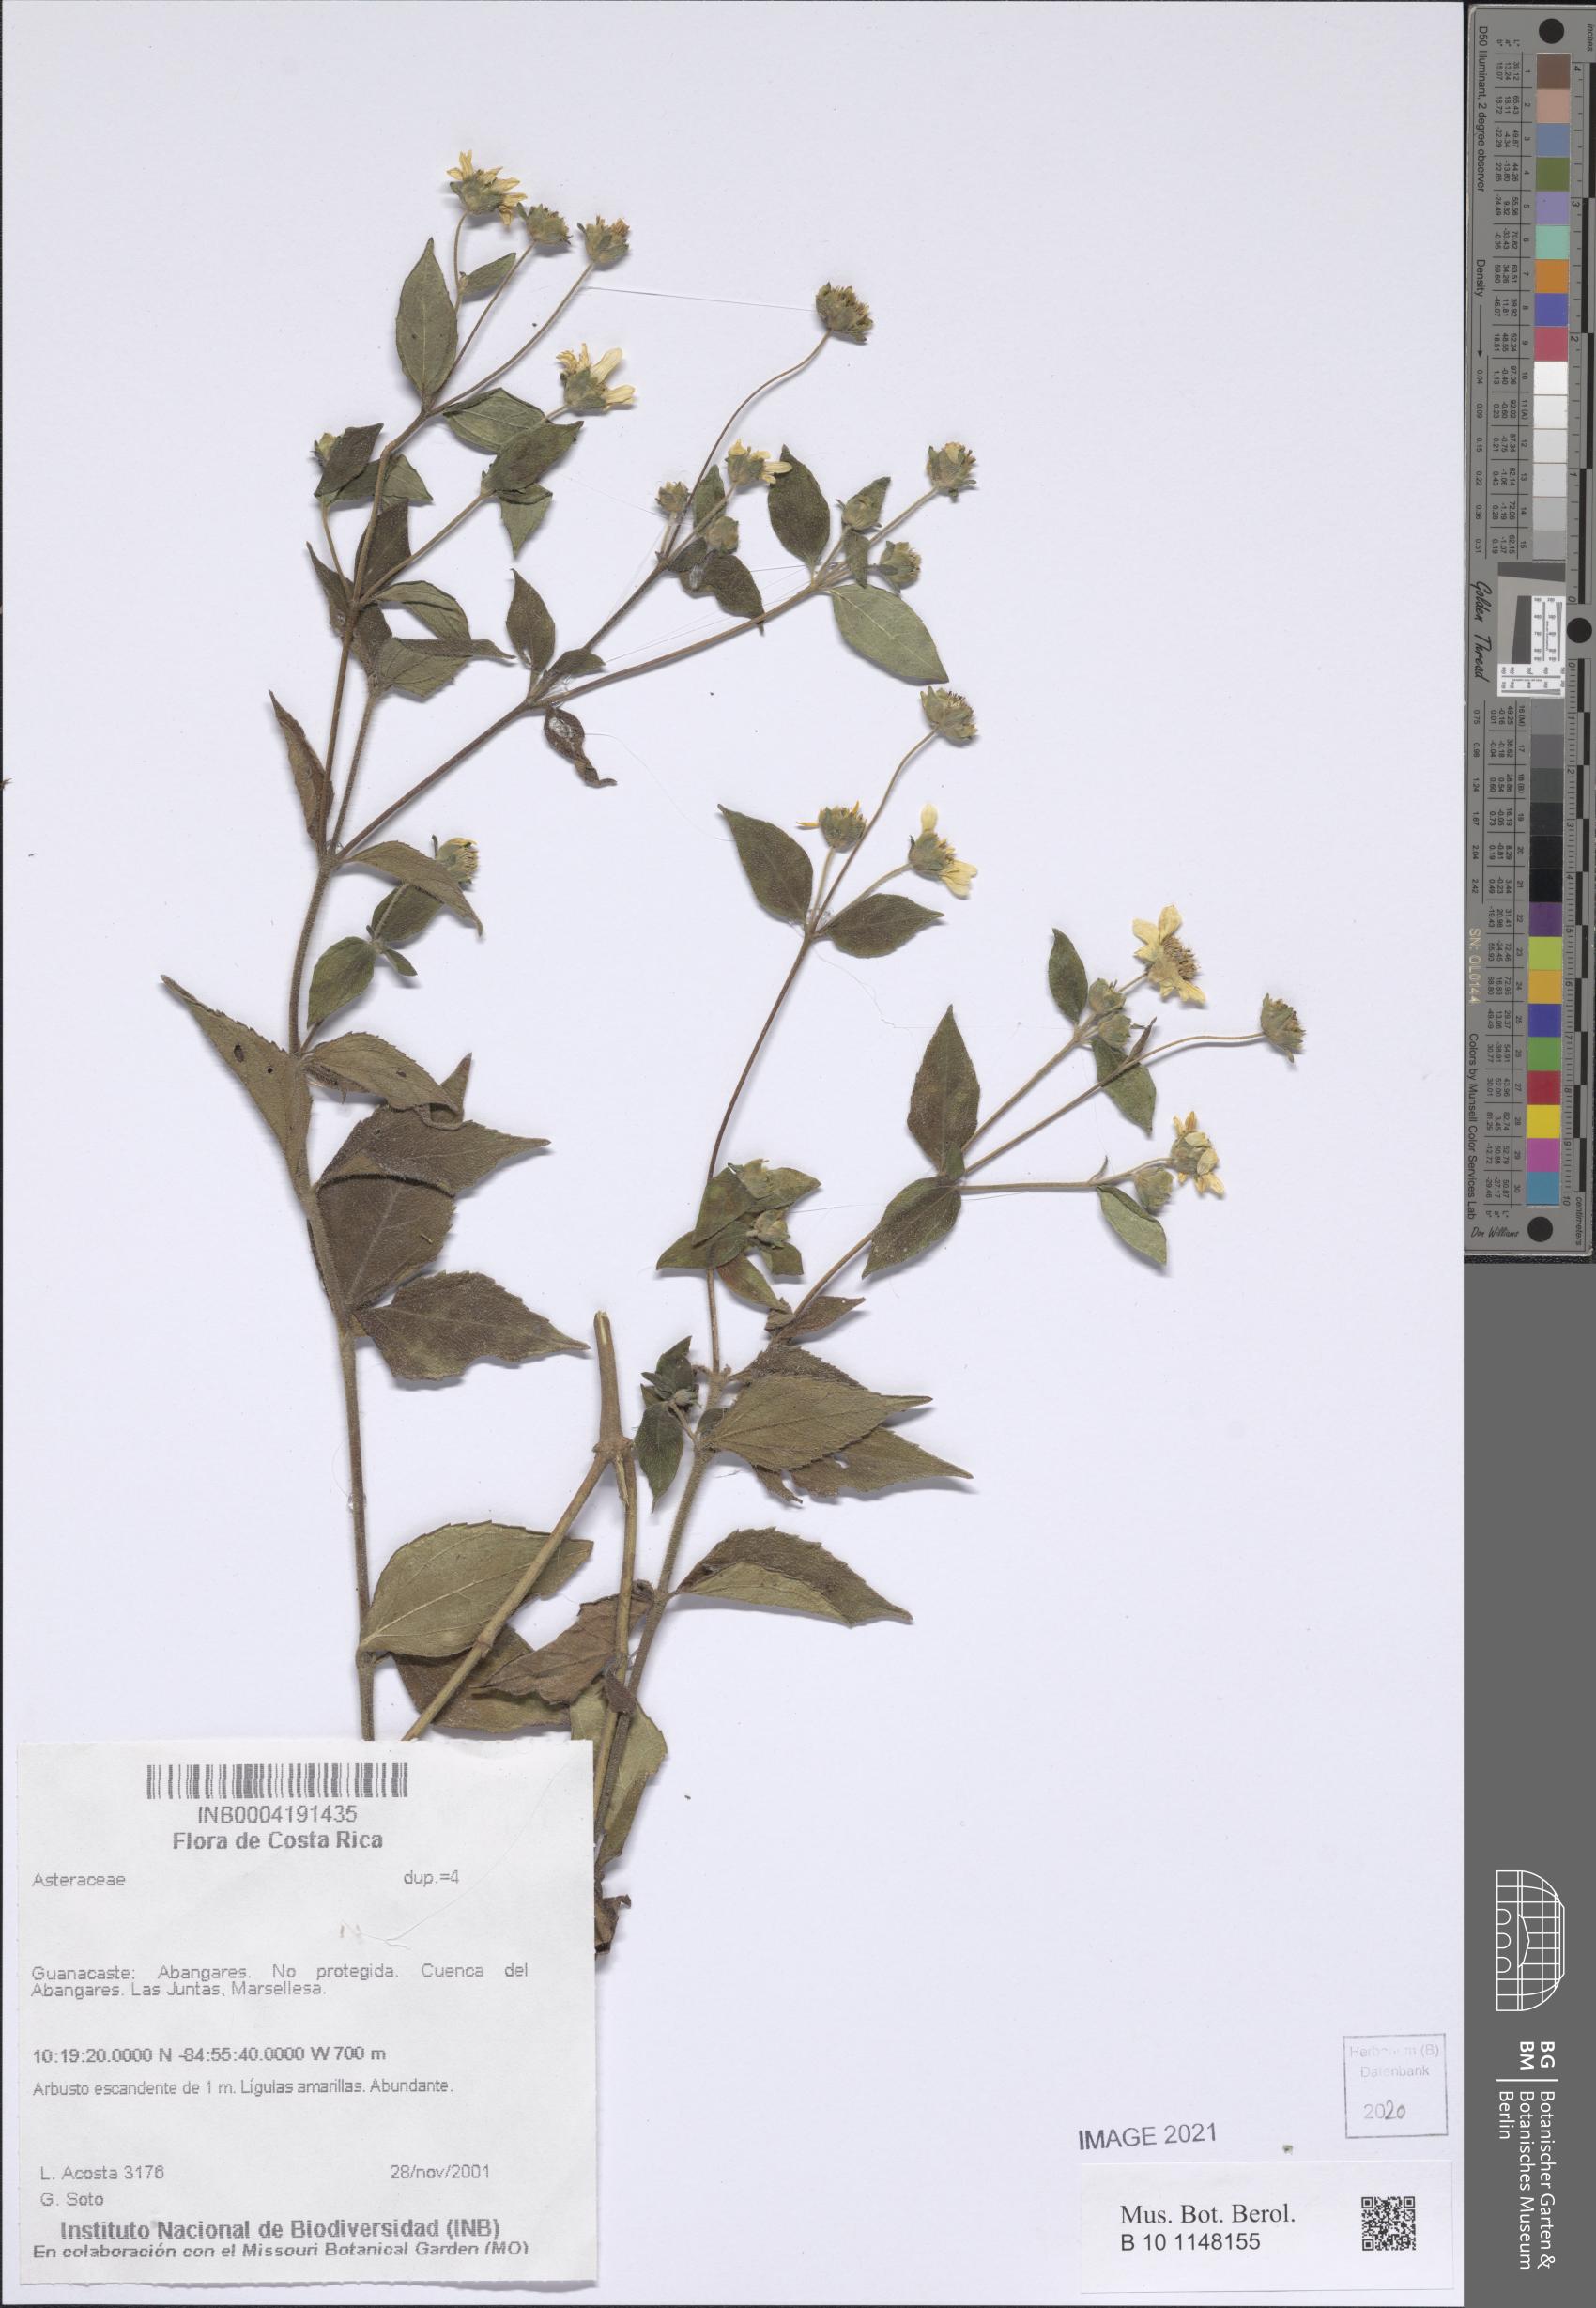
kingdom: Plantae
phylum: Tracheophyta
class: Magnoliopsida
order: Asterales
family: Asteraceae
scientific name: Asteraceae
